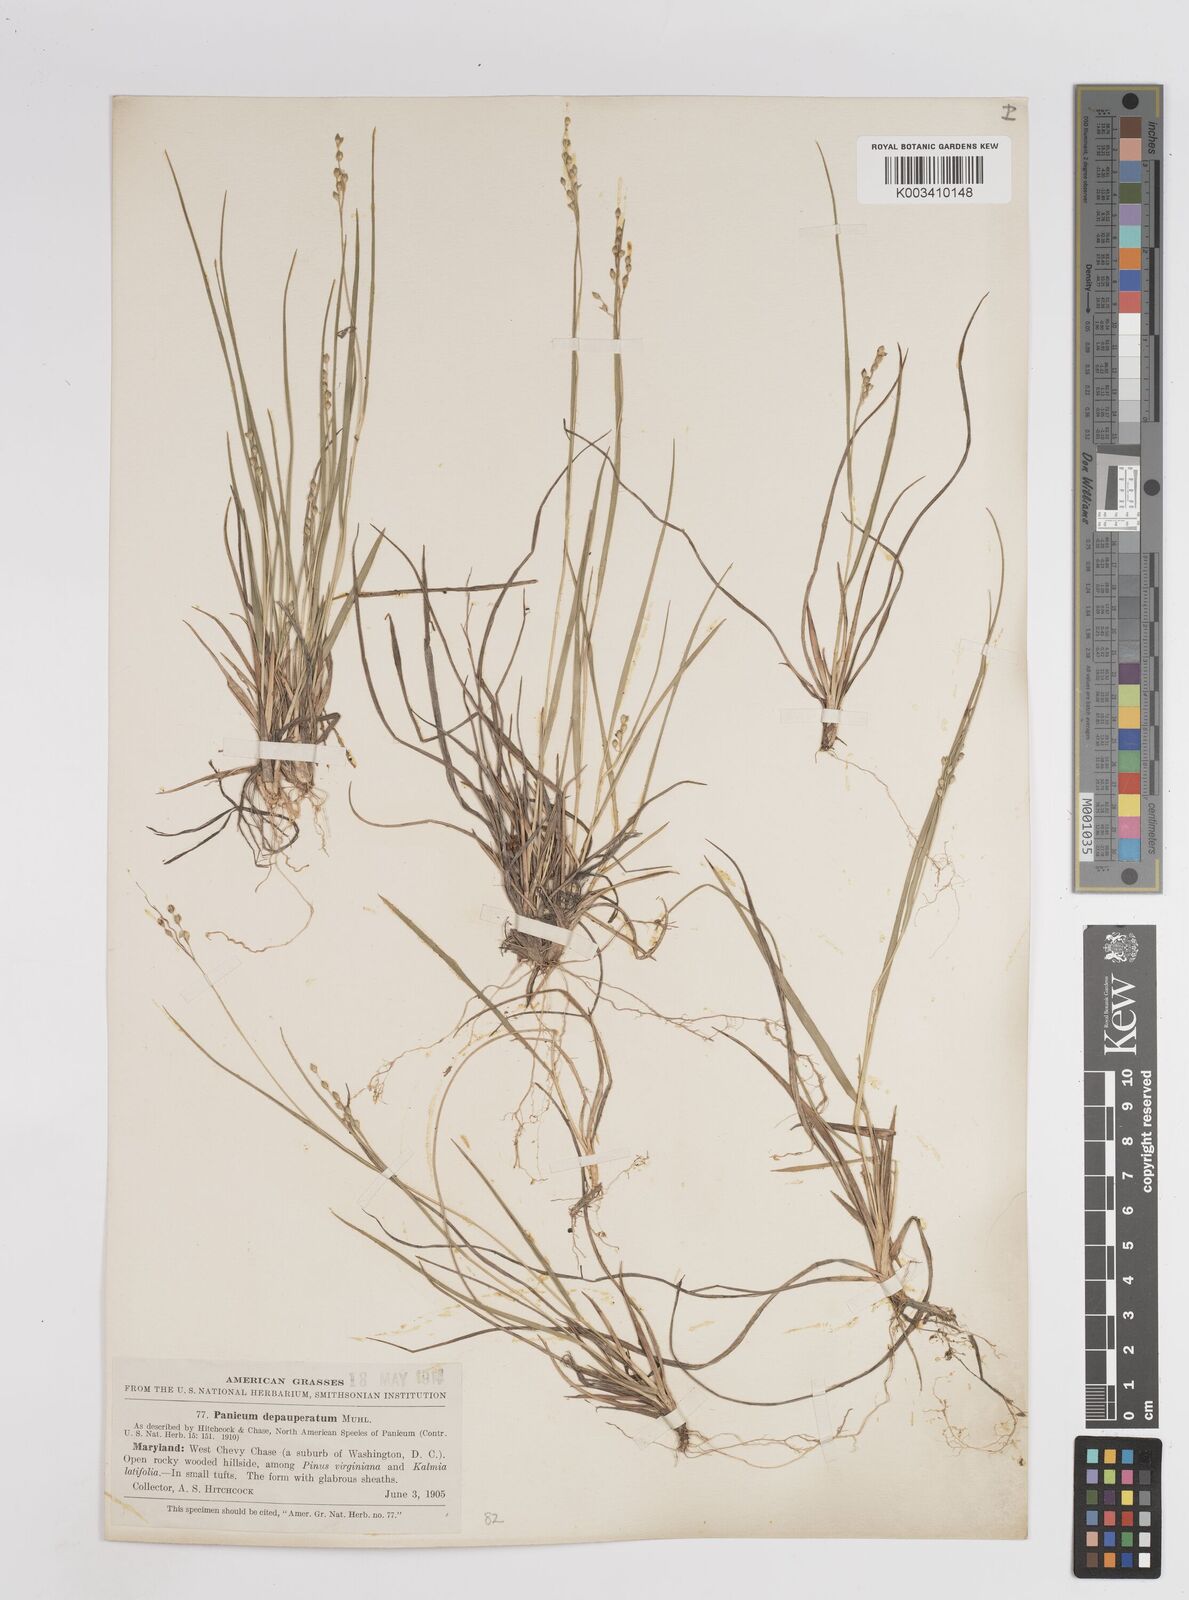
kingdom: Plantae
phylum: Tracheophyta
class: Liliopsida
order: Poales
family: Poaceae
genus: Dichanthelium
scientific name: Dichanthelium depauperatum
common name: Depauperate panicgrass
